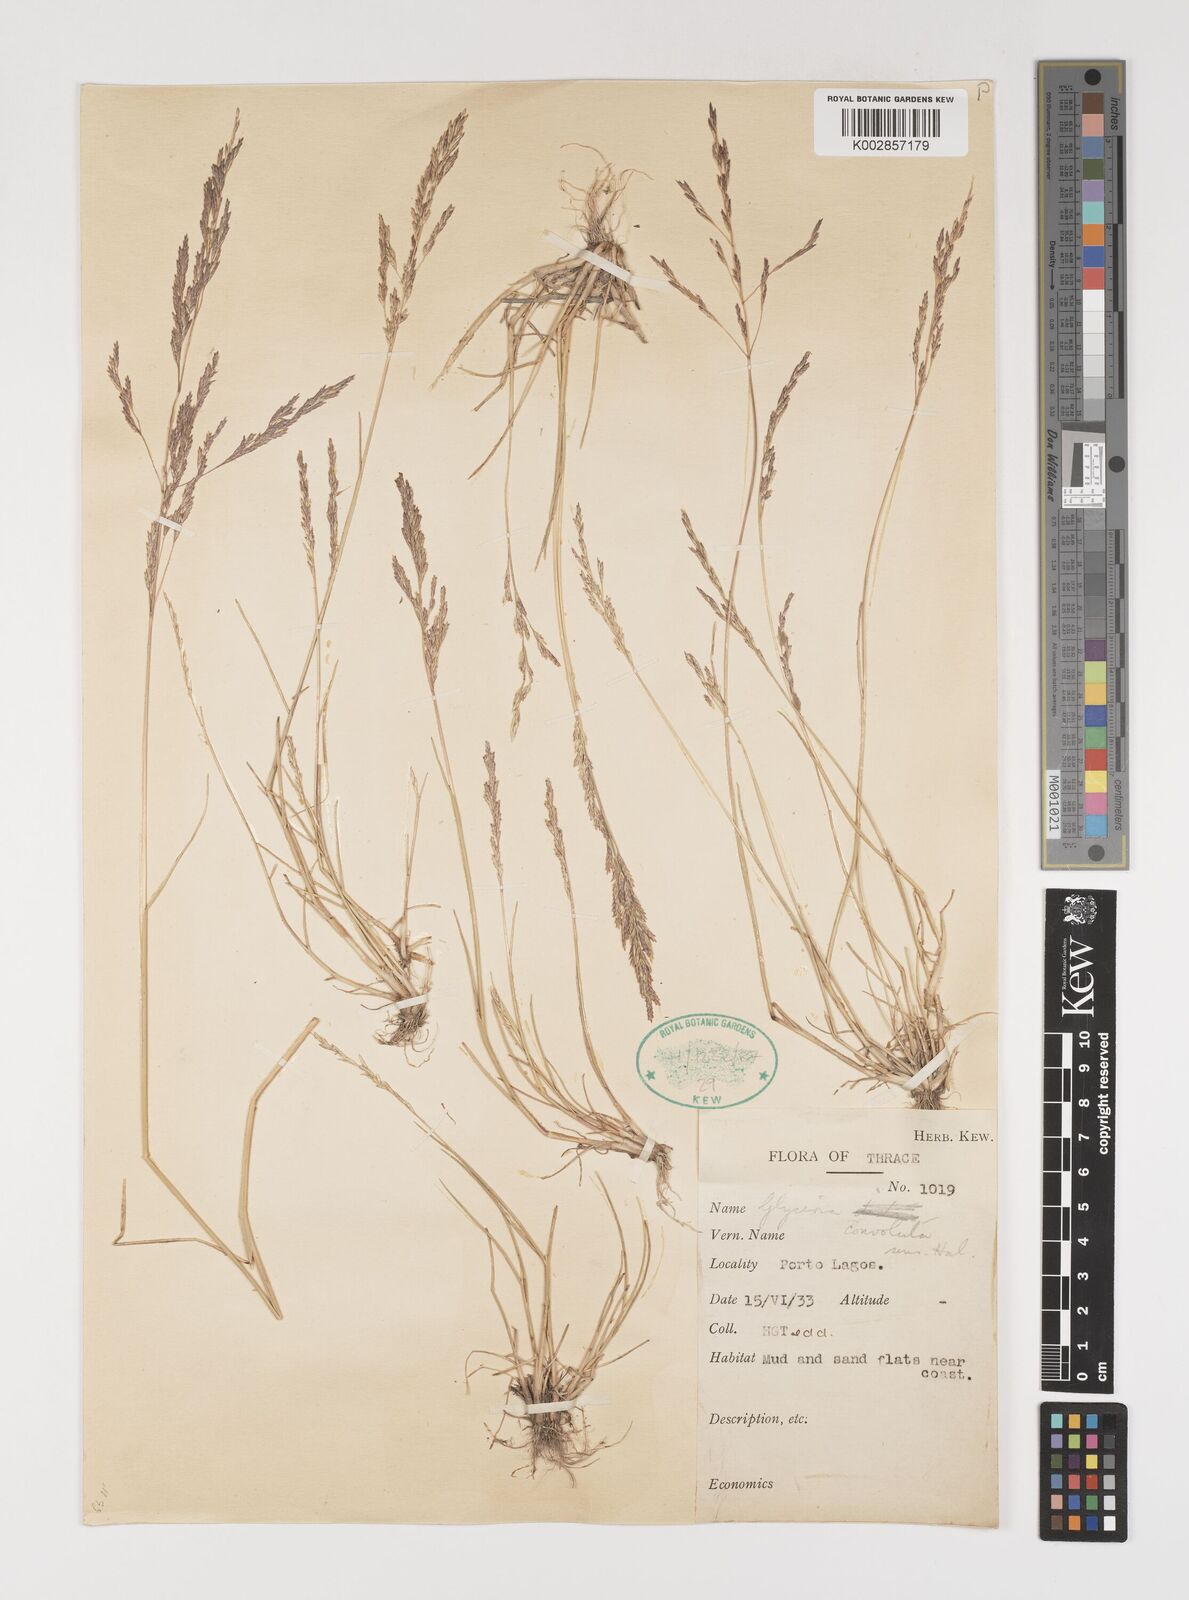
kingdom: Plantae
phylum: Tracheophyta
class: Liliopsida
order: Poales
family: Poaceae
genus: Puccinellia
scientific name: Puccinellia convoluta
